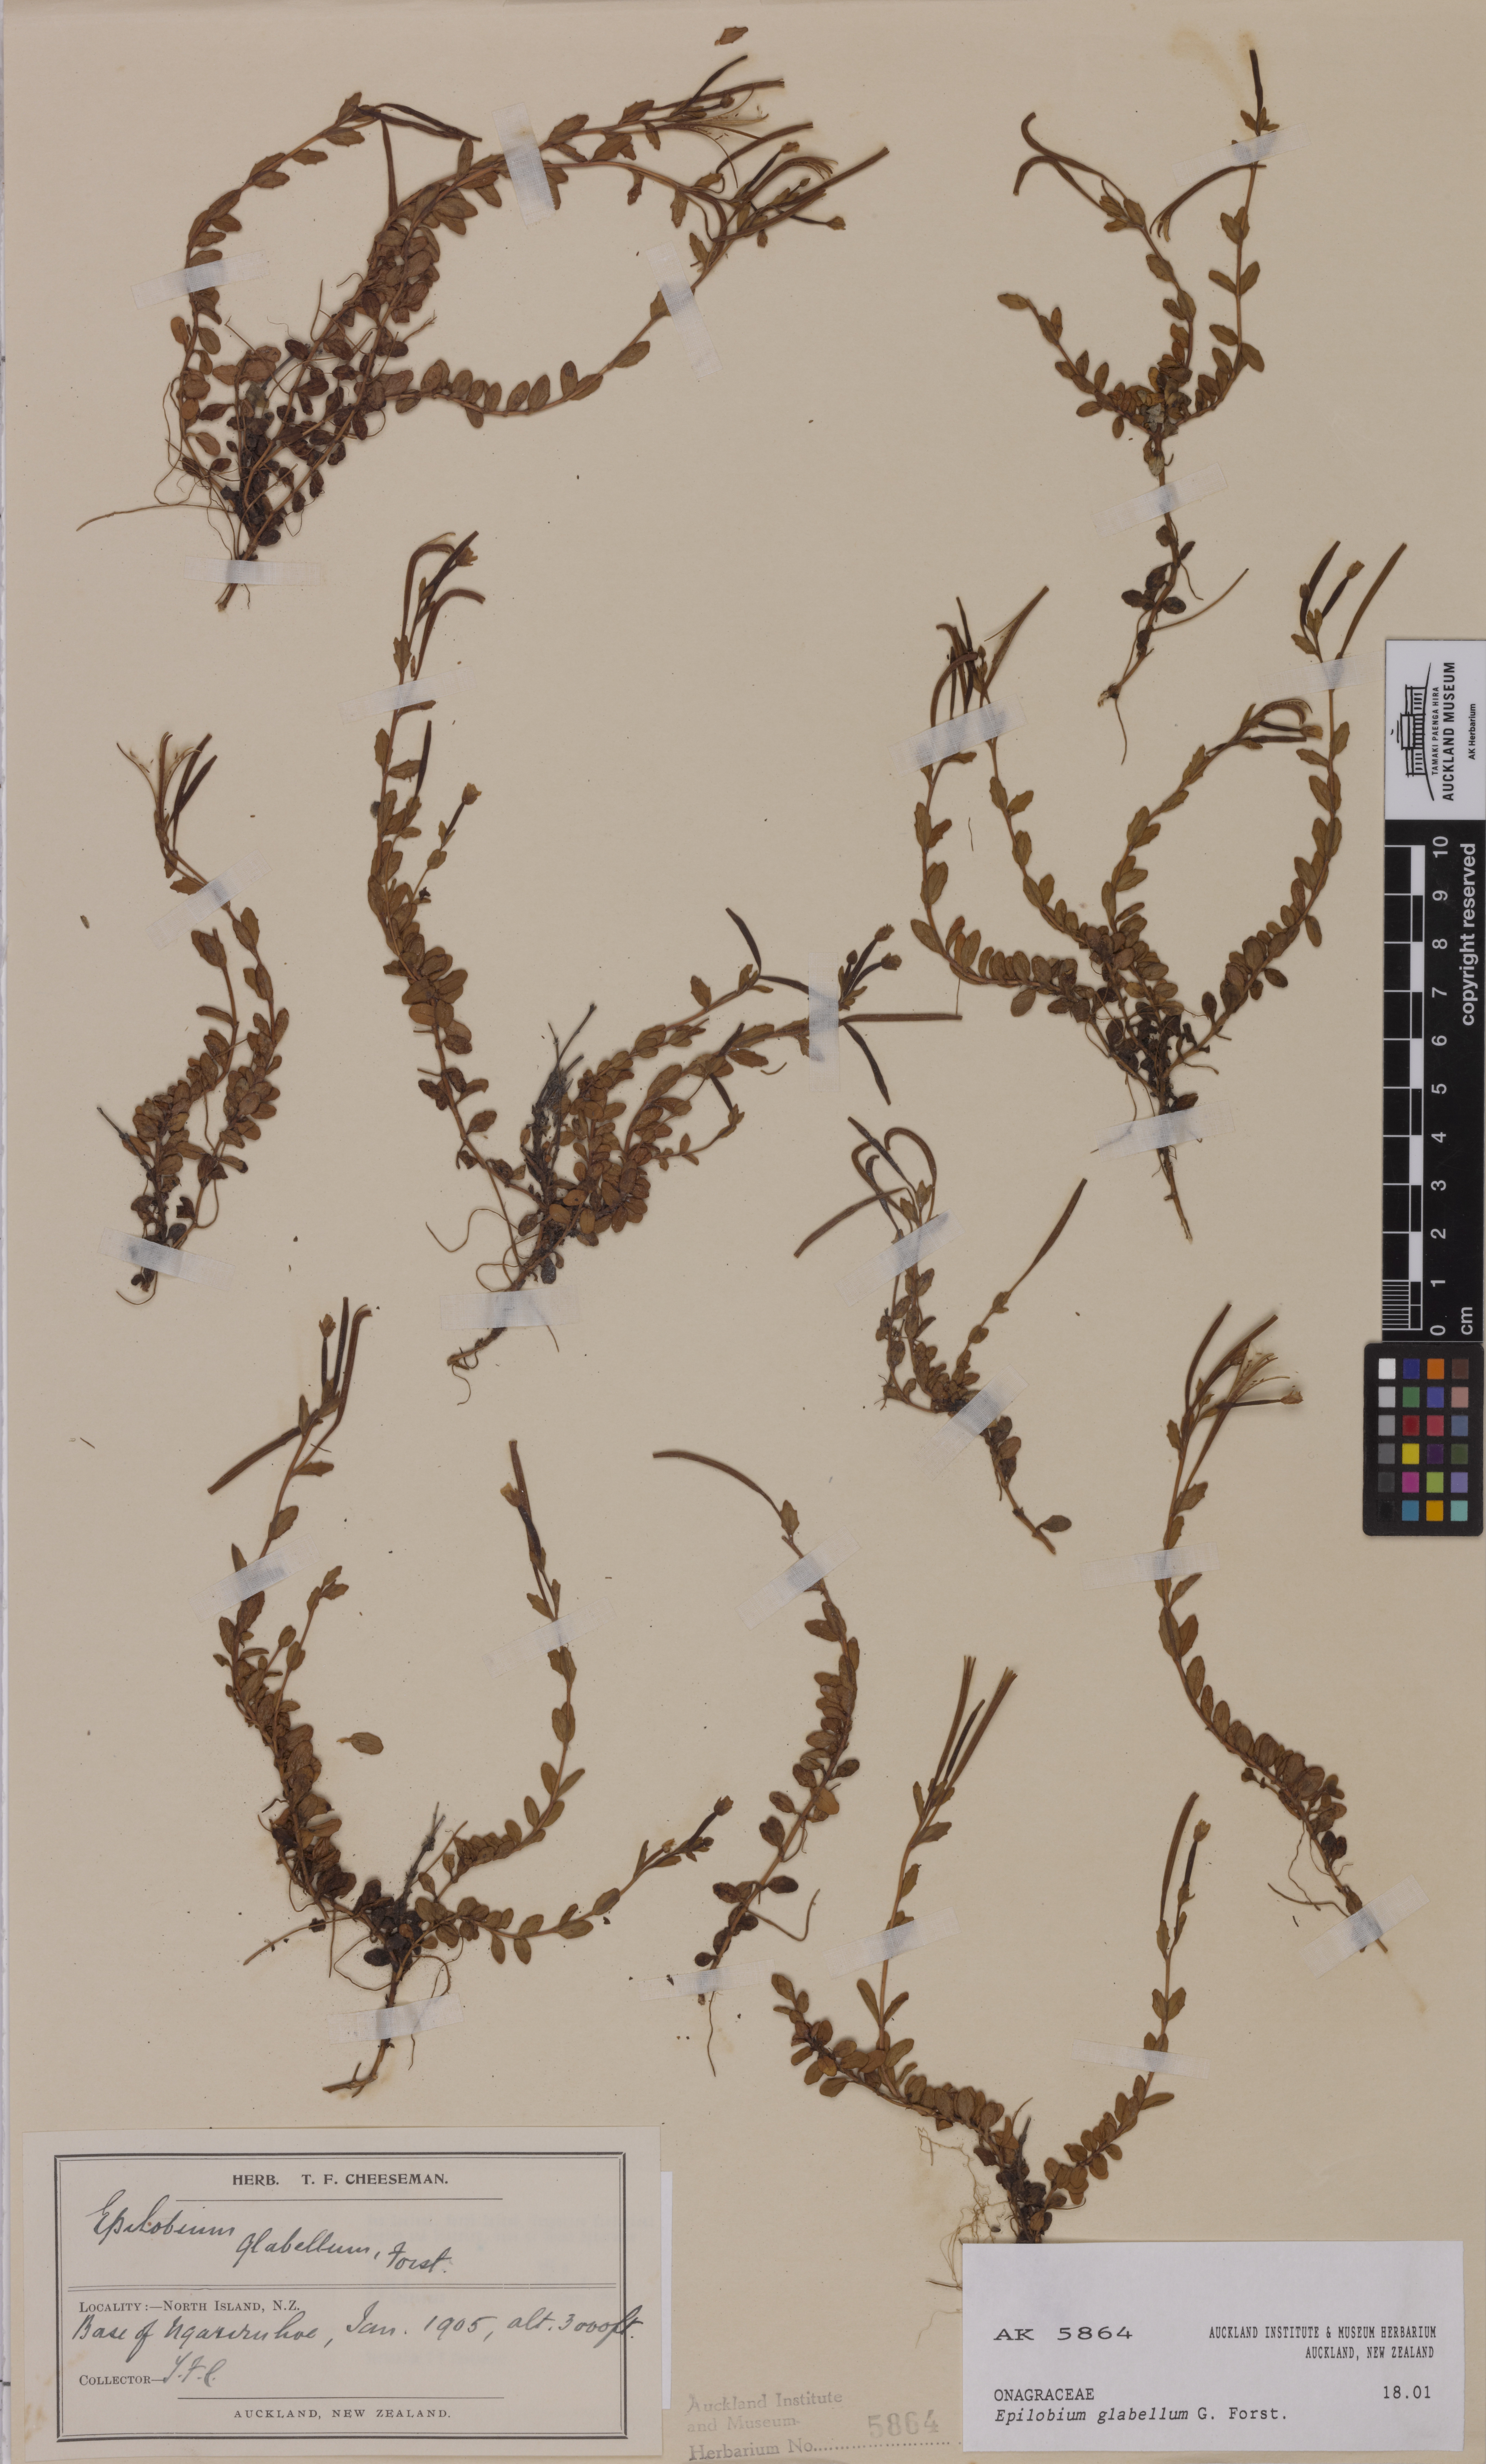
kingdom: Plantae
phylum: Tracheophyta
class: Magnoliopsida
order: Myrtales
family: Onagraceae
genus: Epilobium
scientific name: Epilobium glabellum
